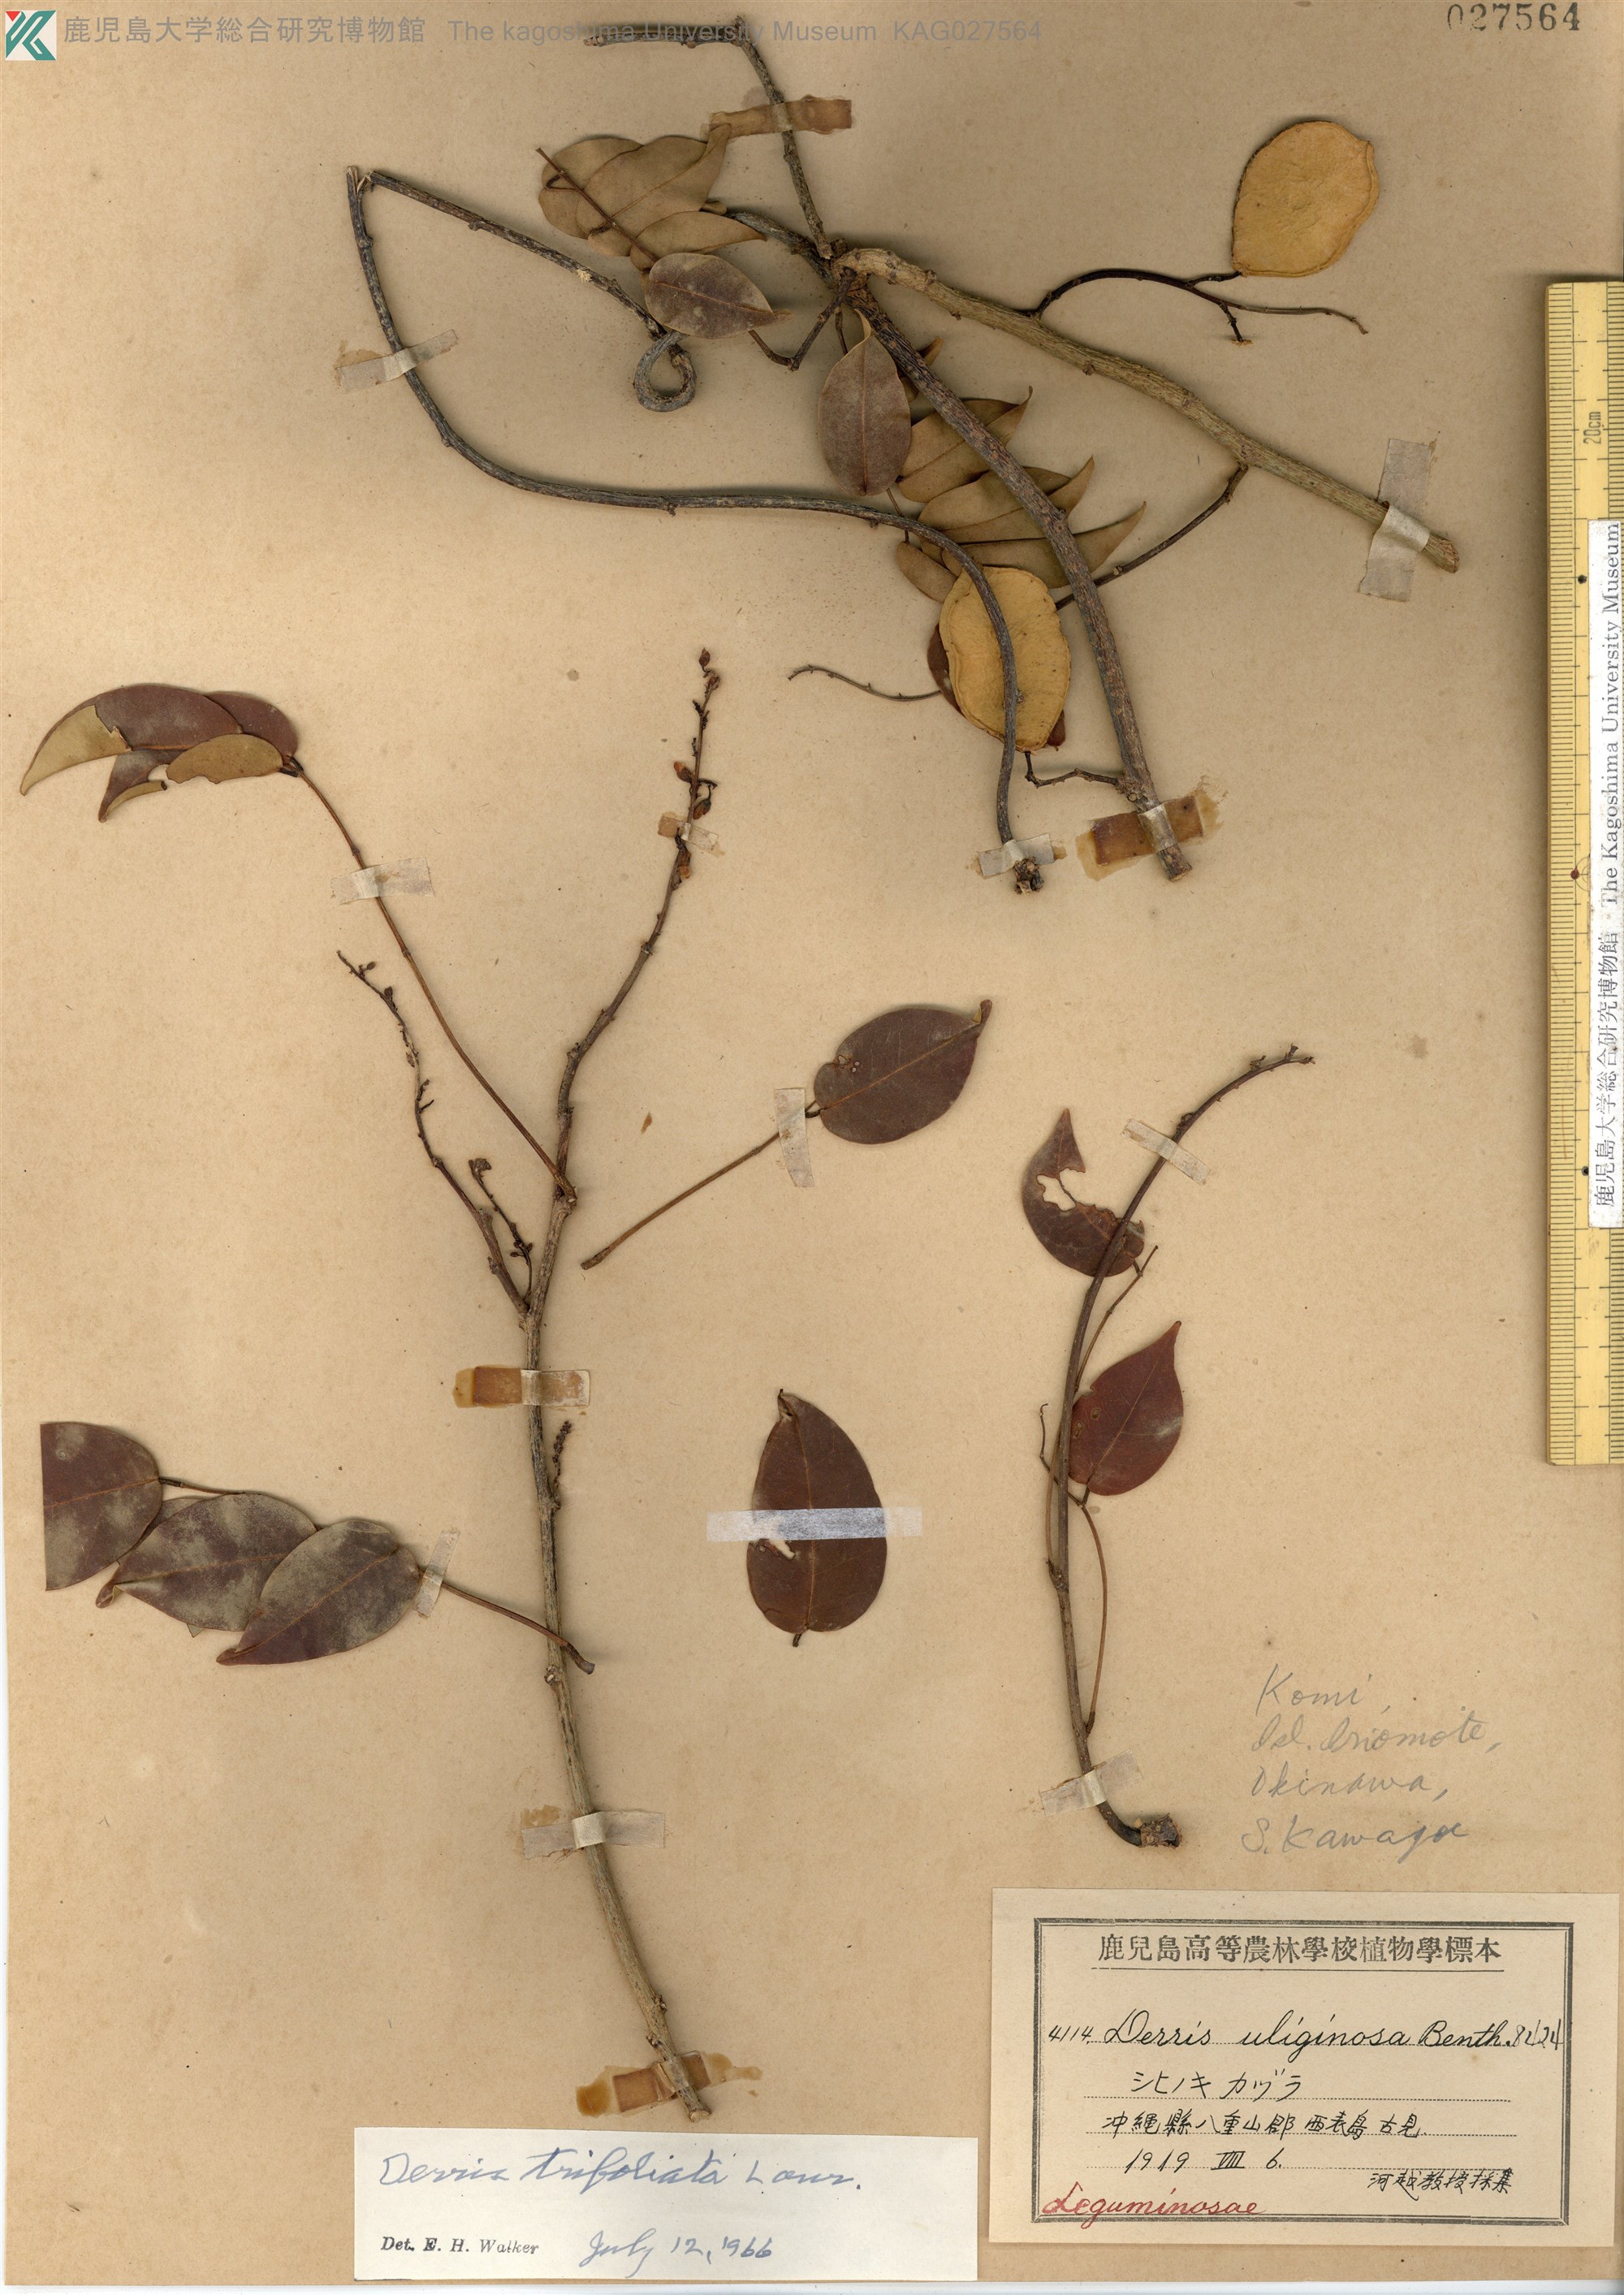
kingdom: Plantae
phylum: Tracheophyta
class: Magnoliopsida
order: Fabales
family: Fabaceae
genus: Derris
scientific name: Derris trifoliata
